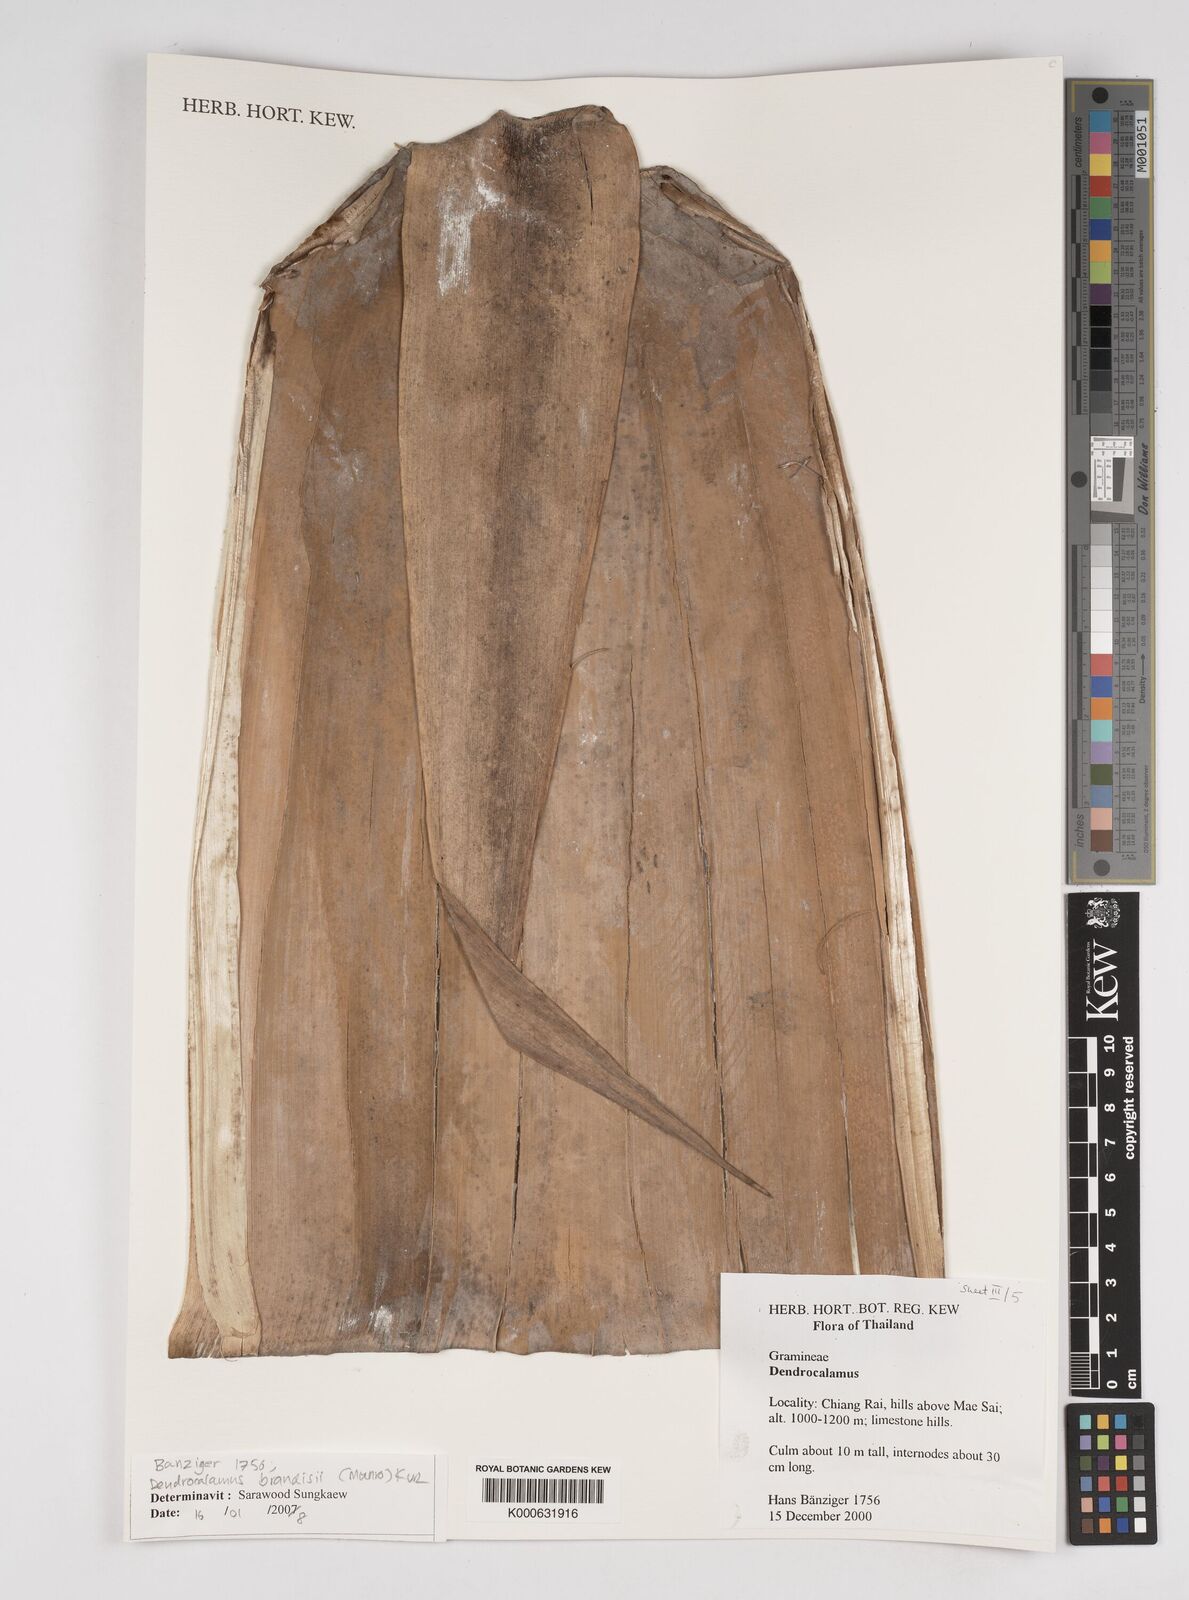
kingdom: Plantae
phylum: Tracheophyta
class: Liliopsida
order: Poales
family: Poaceae
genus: Dendrocalamus
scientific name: Dendrocalamus brandisii
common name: Velvetleaf bamboo
